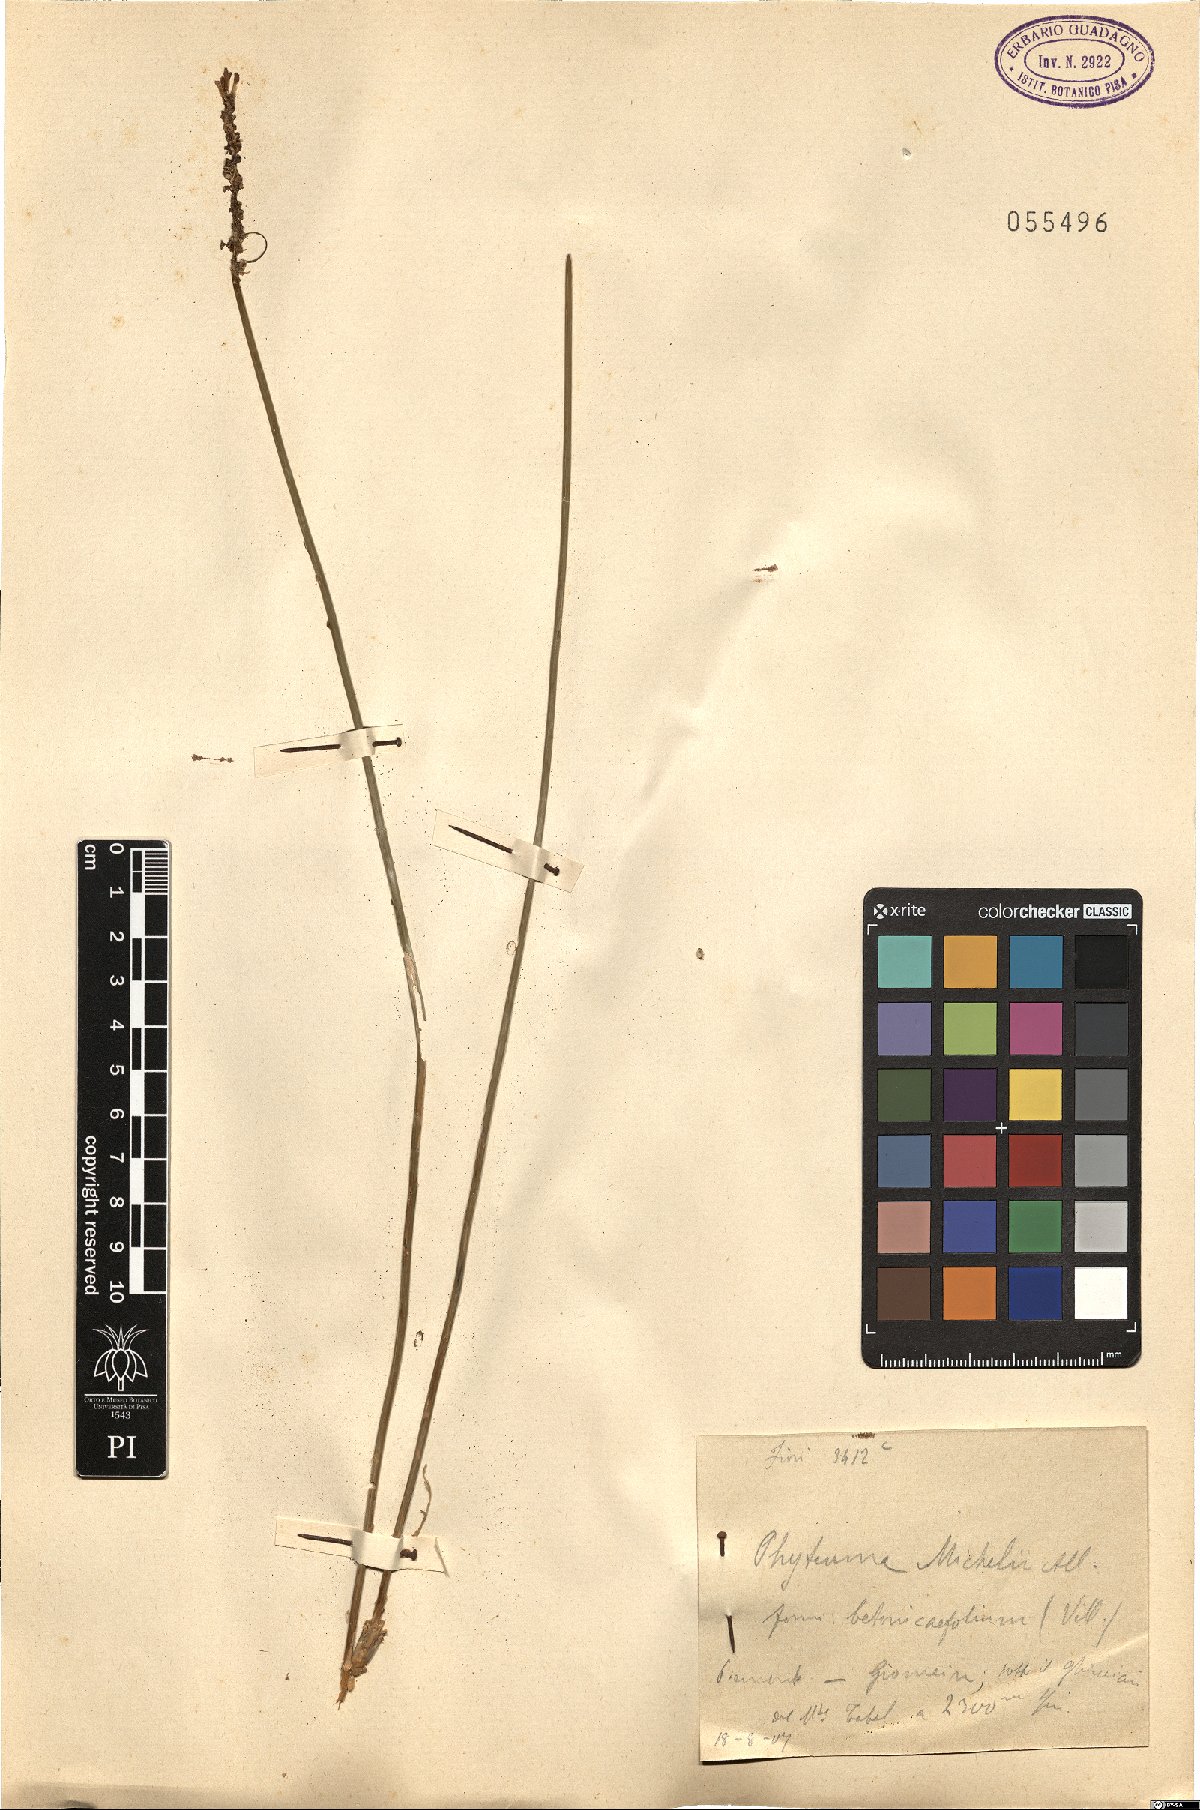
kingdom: Plantae
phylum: Tracheophyta
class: Magnoliopsida
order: Asterales
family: Campanulaceae
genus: Phyteuma
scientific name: Phyteuma michelii
